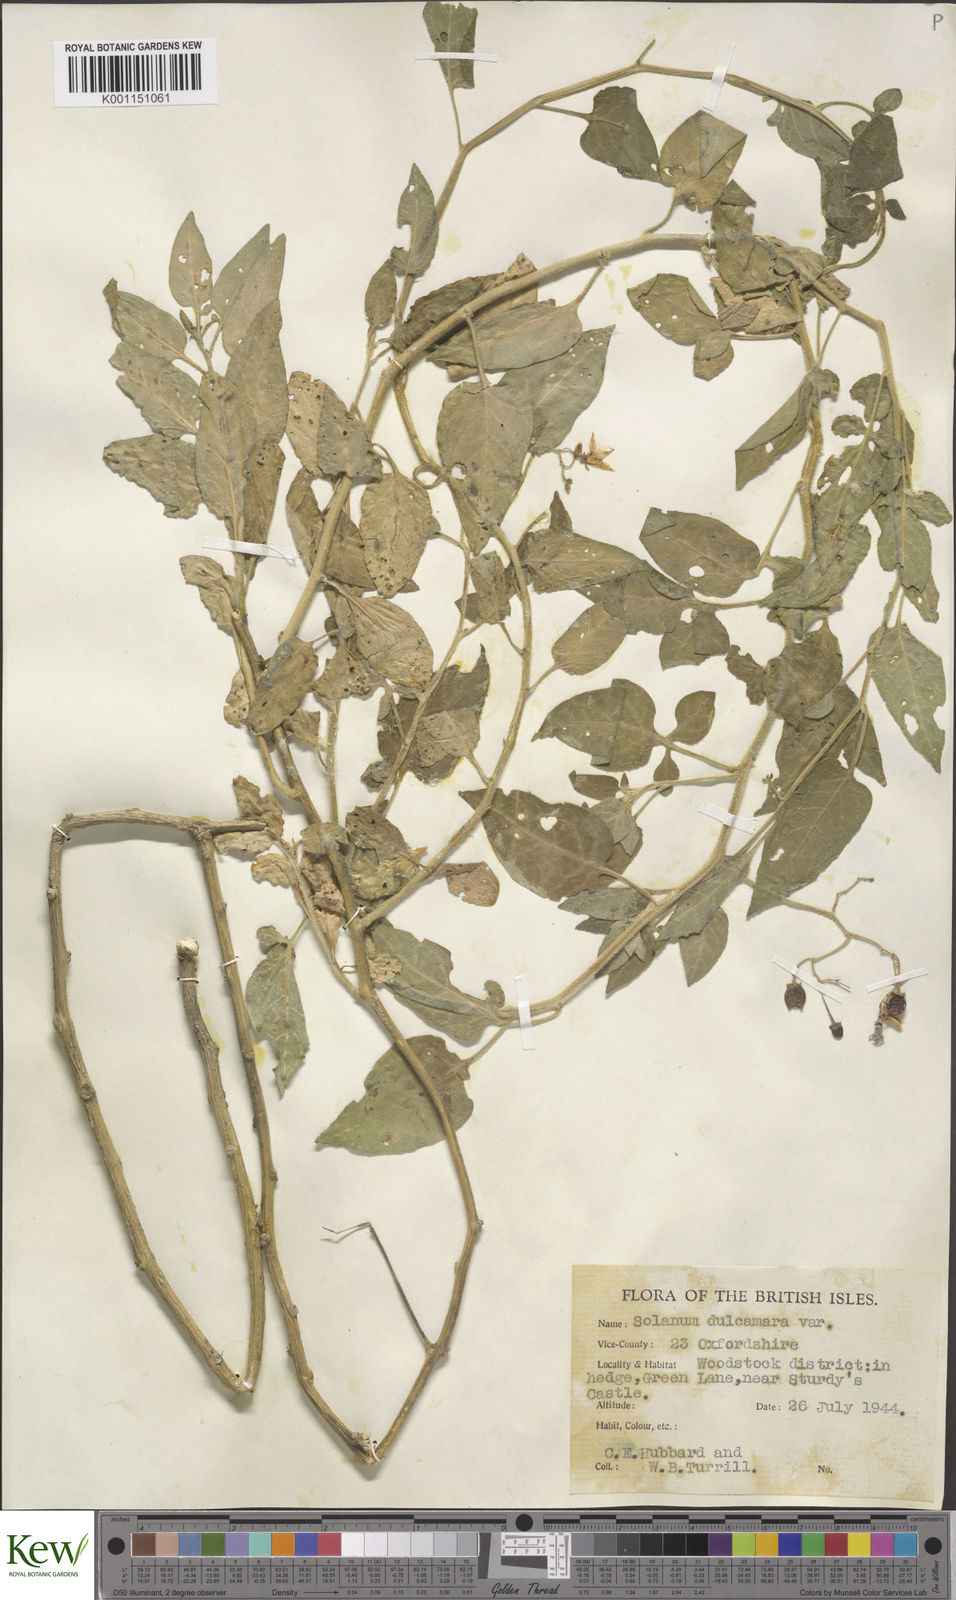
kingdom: Plantae
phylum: Tracheophyta
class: Magnoliopsida
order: Solanales
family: Solanaceae
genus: Solanum
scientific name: Solanum dulcamara
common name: Climbing nightshade
